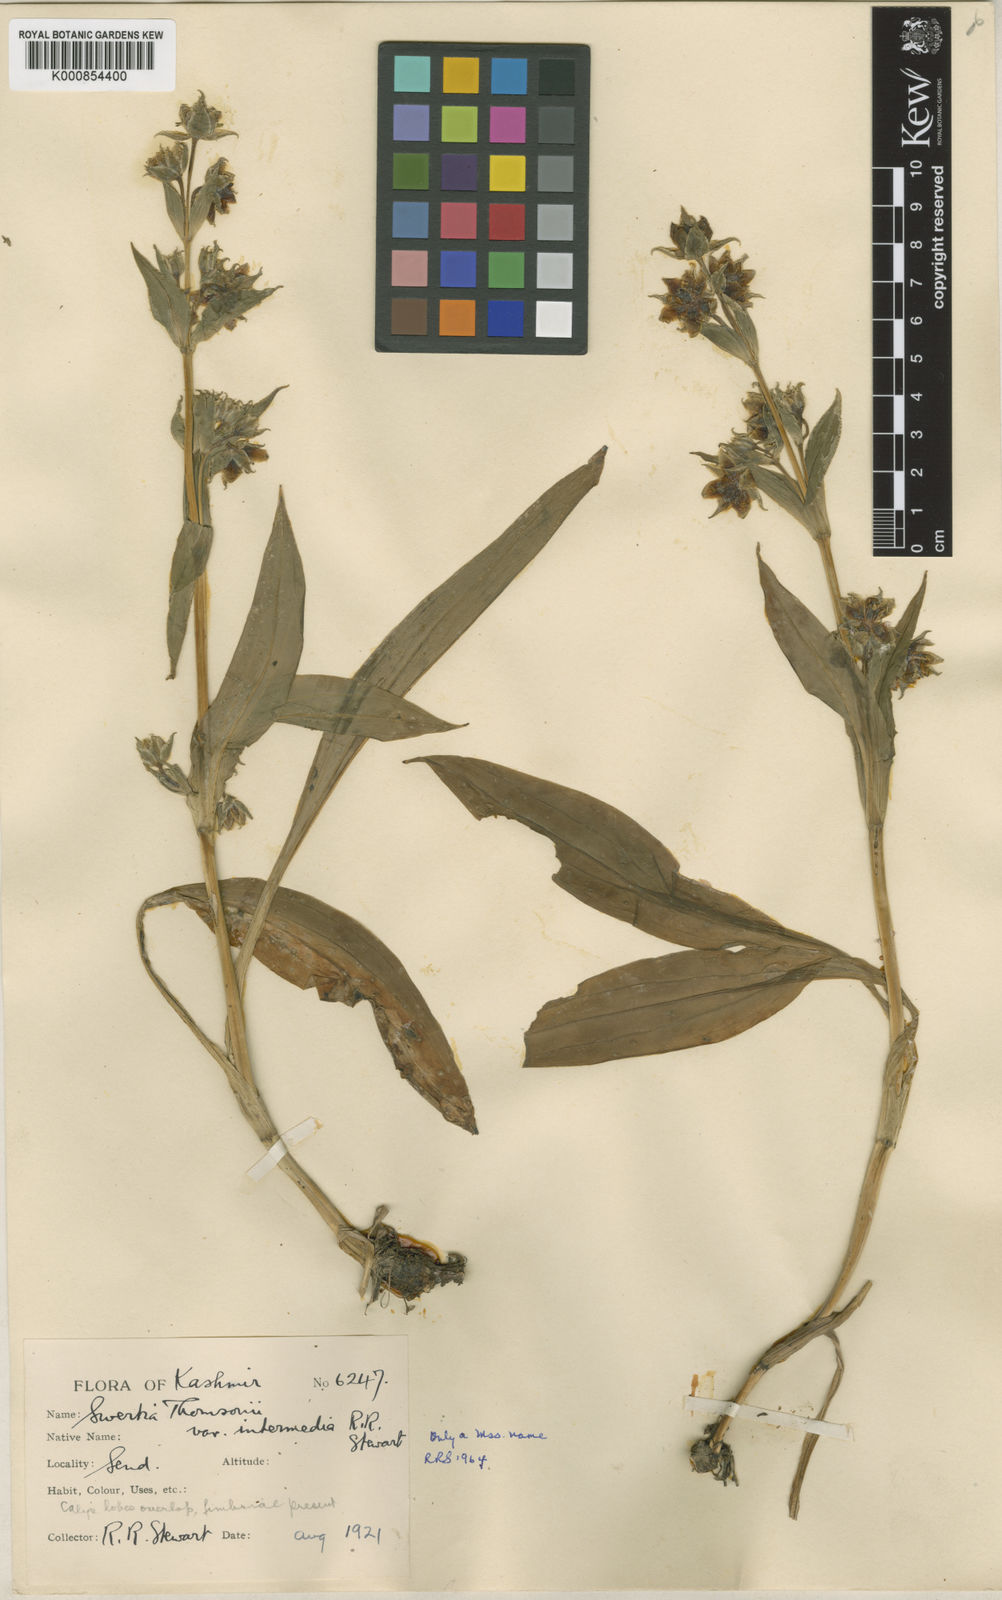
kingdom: Plantae
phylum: Tracheophyta
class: Magnoliopsida
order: Gentianales
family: Gentianaceae
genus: Swertia
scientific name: Swertia thomsonii
